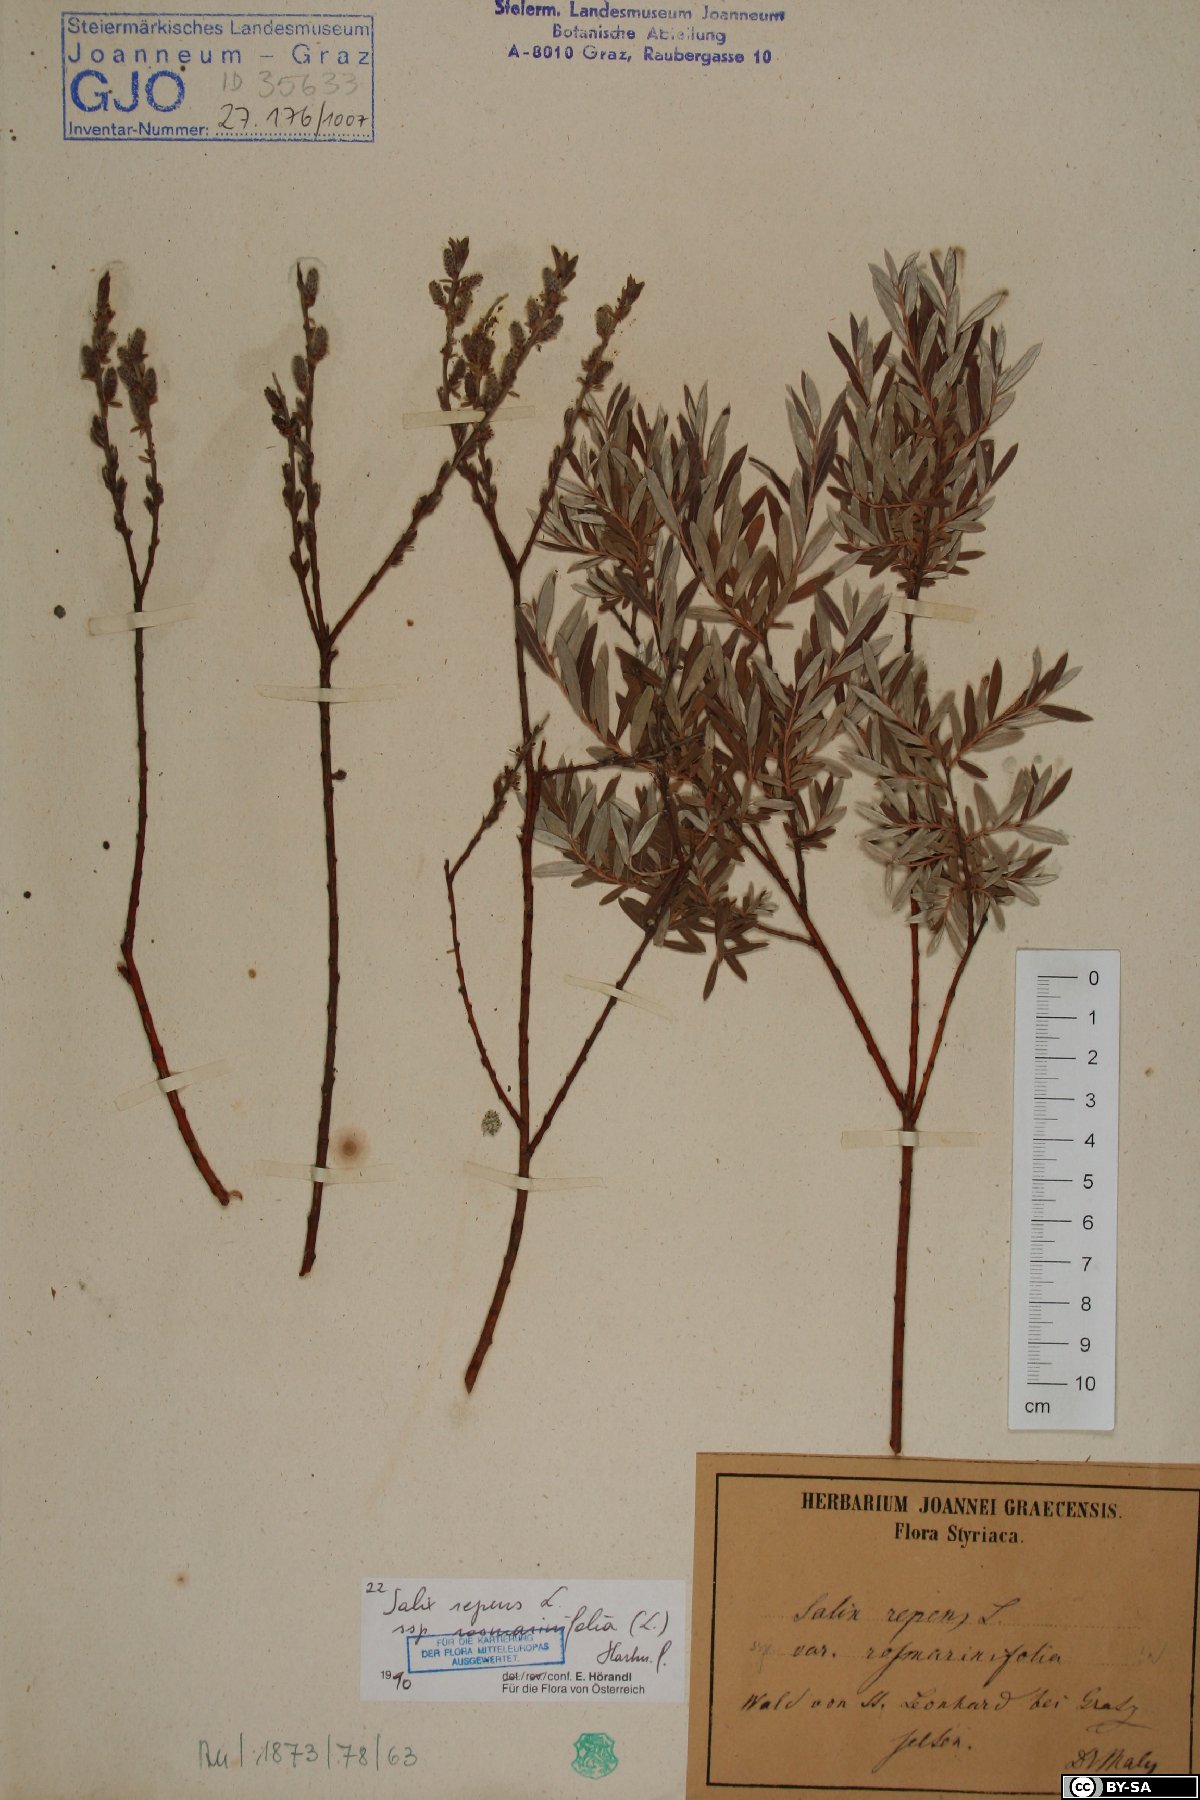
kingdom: Plantae
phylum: Tracheophyta
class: Magnoliopsida
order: Malpighiales
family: Salicaceae
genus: Salix
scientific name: Salix repens
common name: Creeping willow
